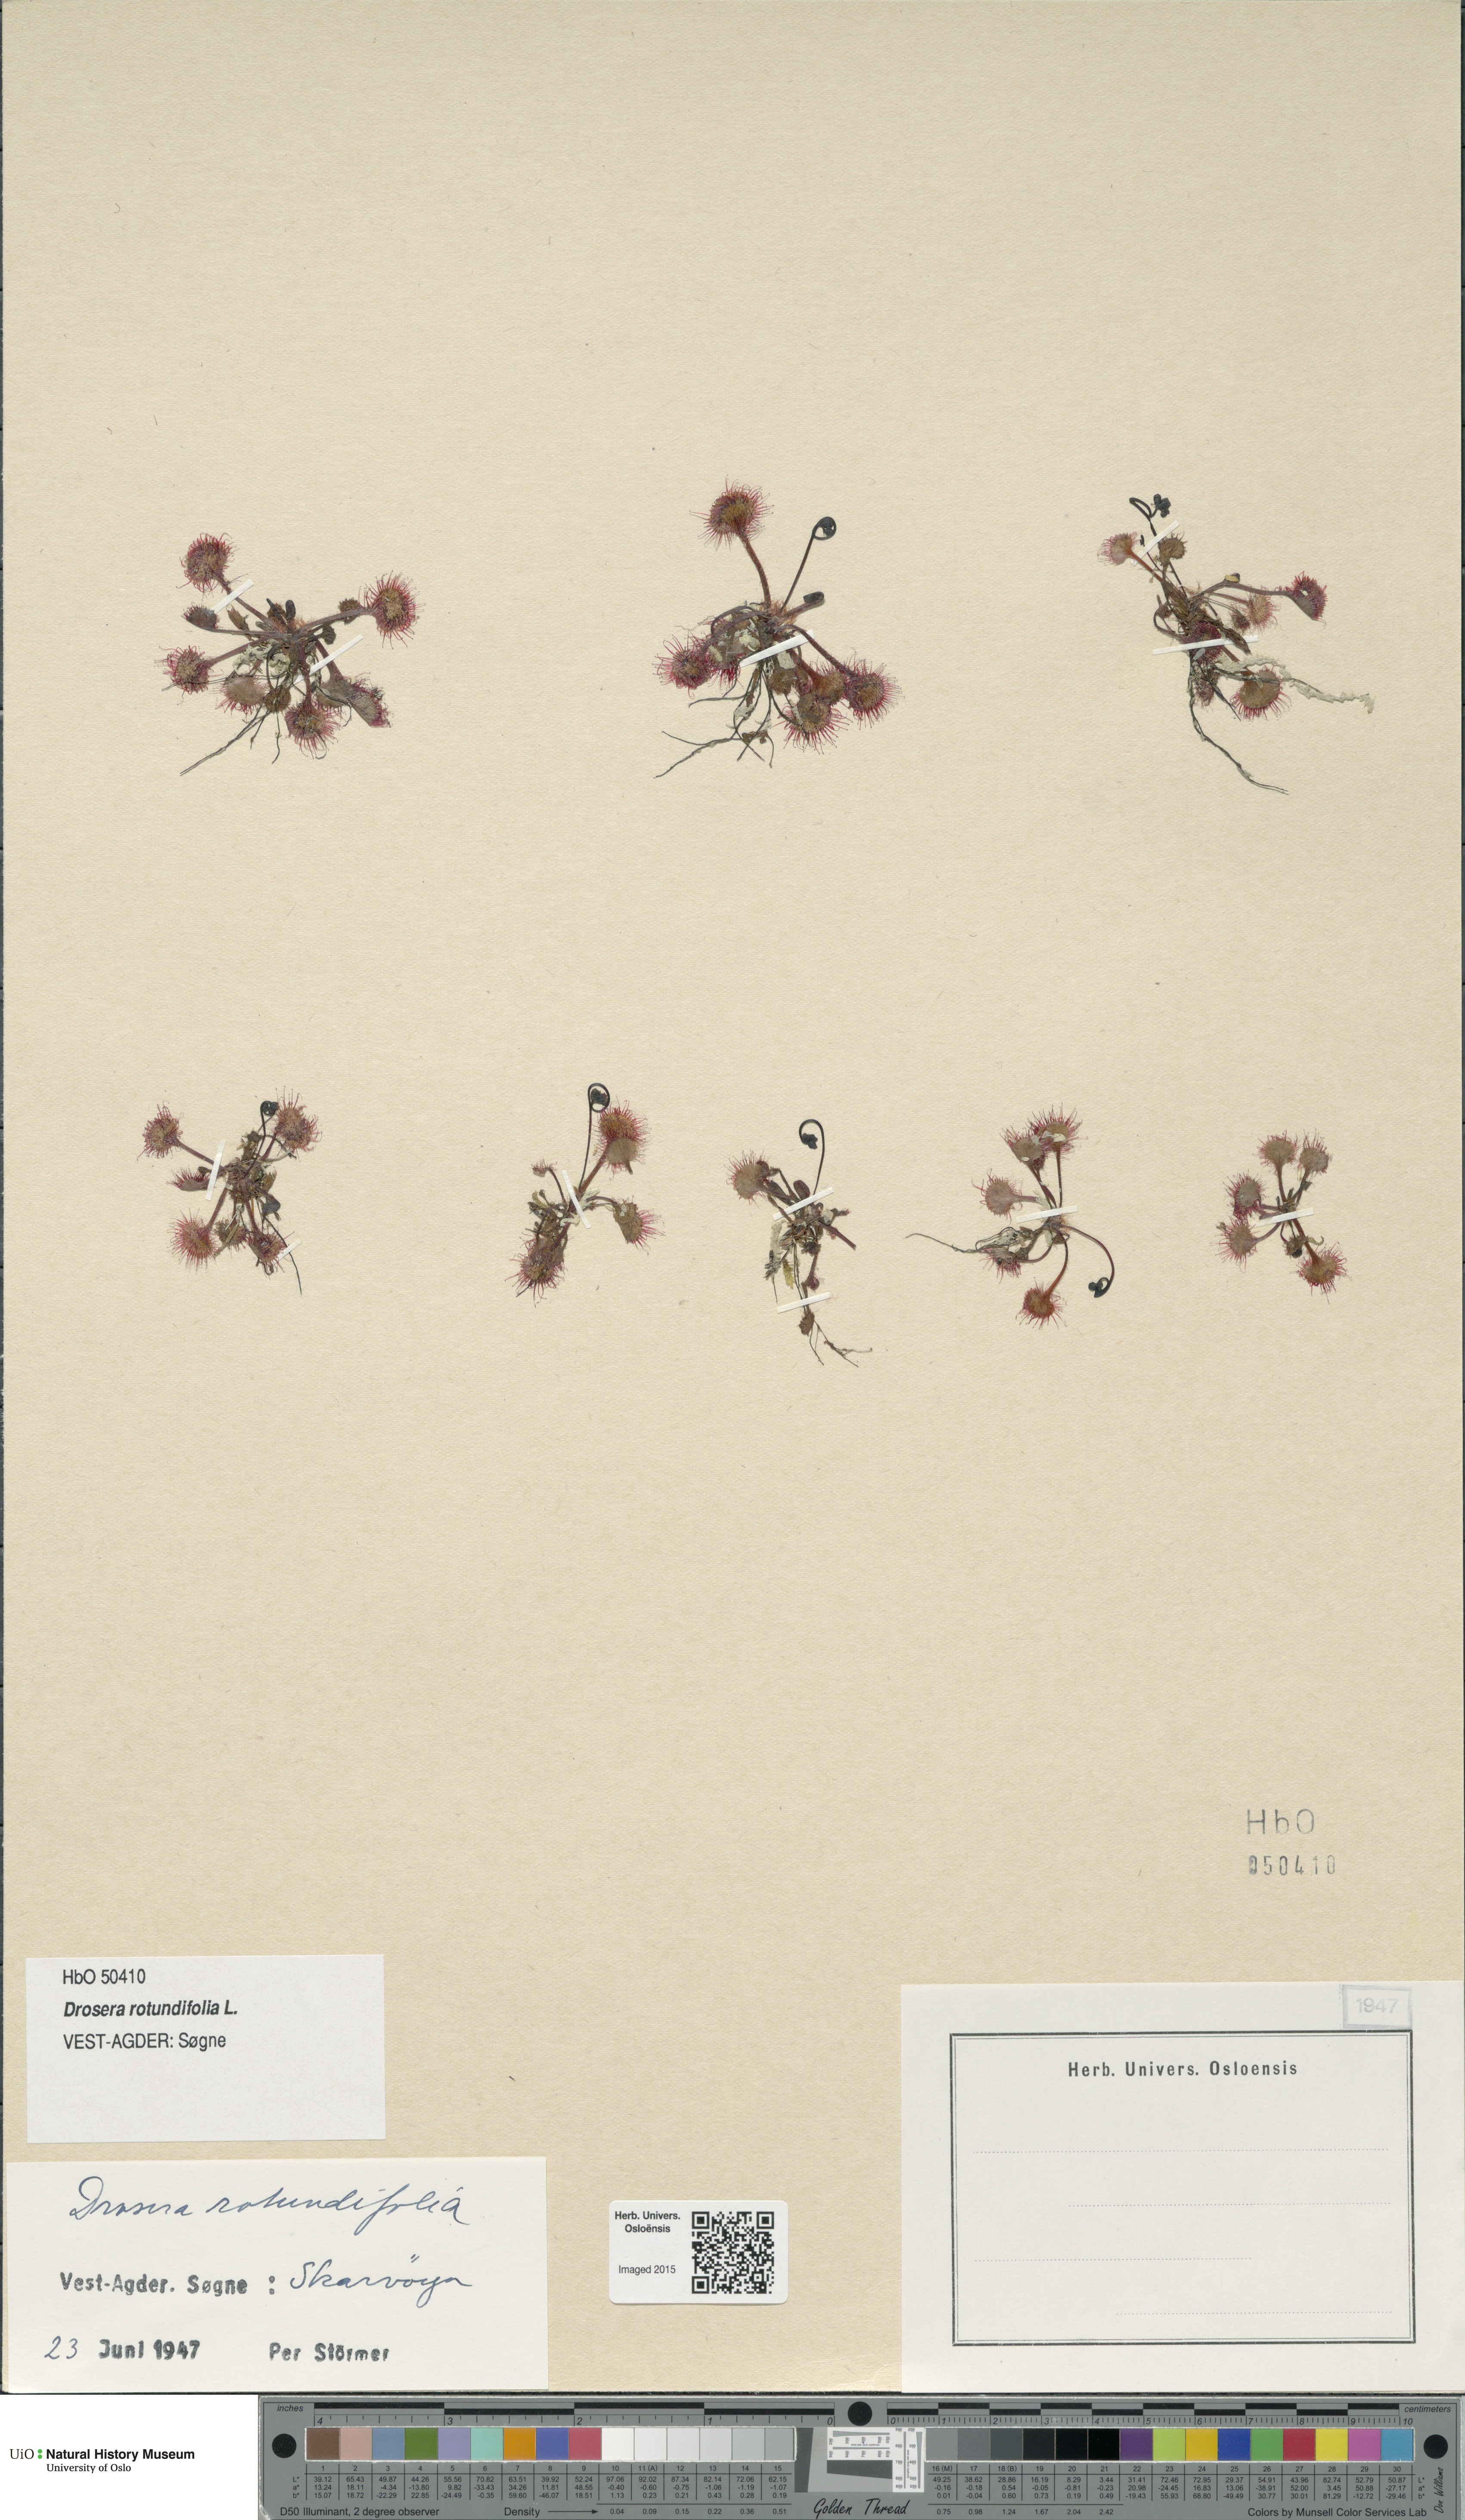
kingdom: Plantae
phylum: Tracheophyta
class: Magnoliopsida
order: Caryophyllales
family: Droseraceae
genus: Drosera
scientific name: Drosera rotundifolia
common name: Round-leaved sundew
